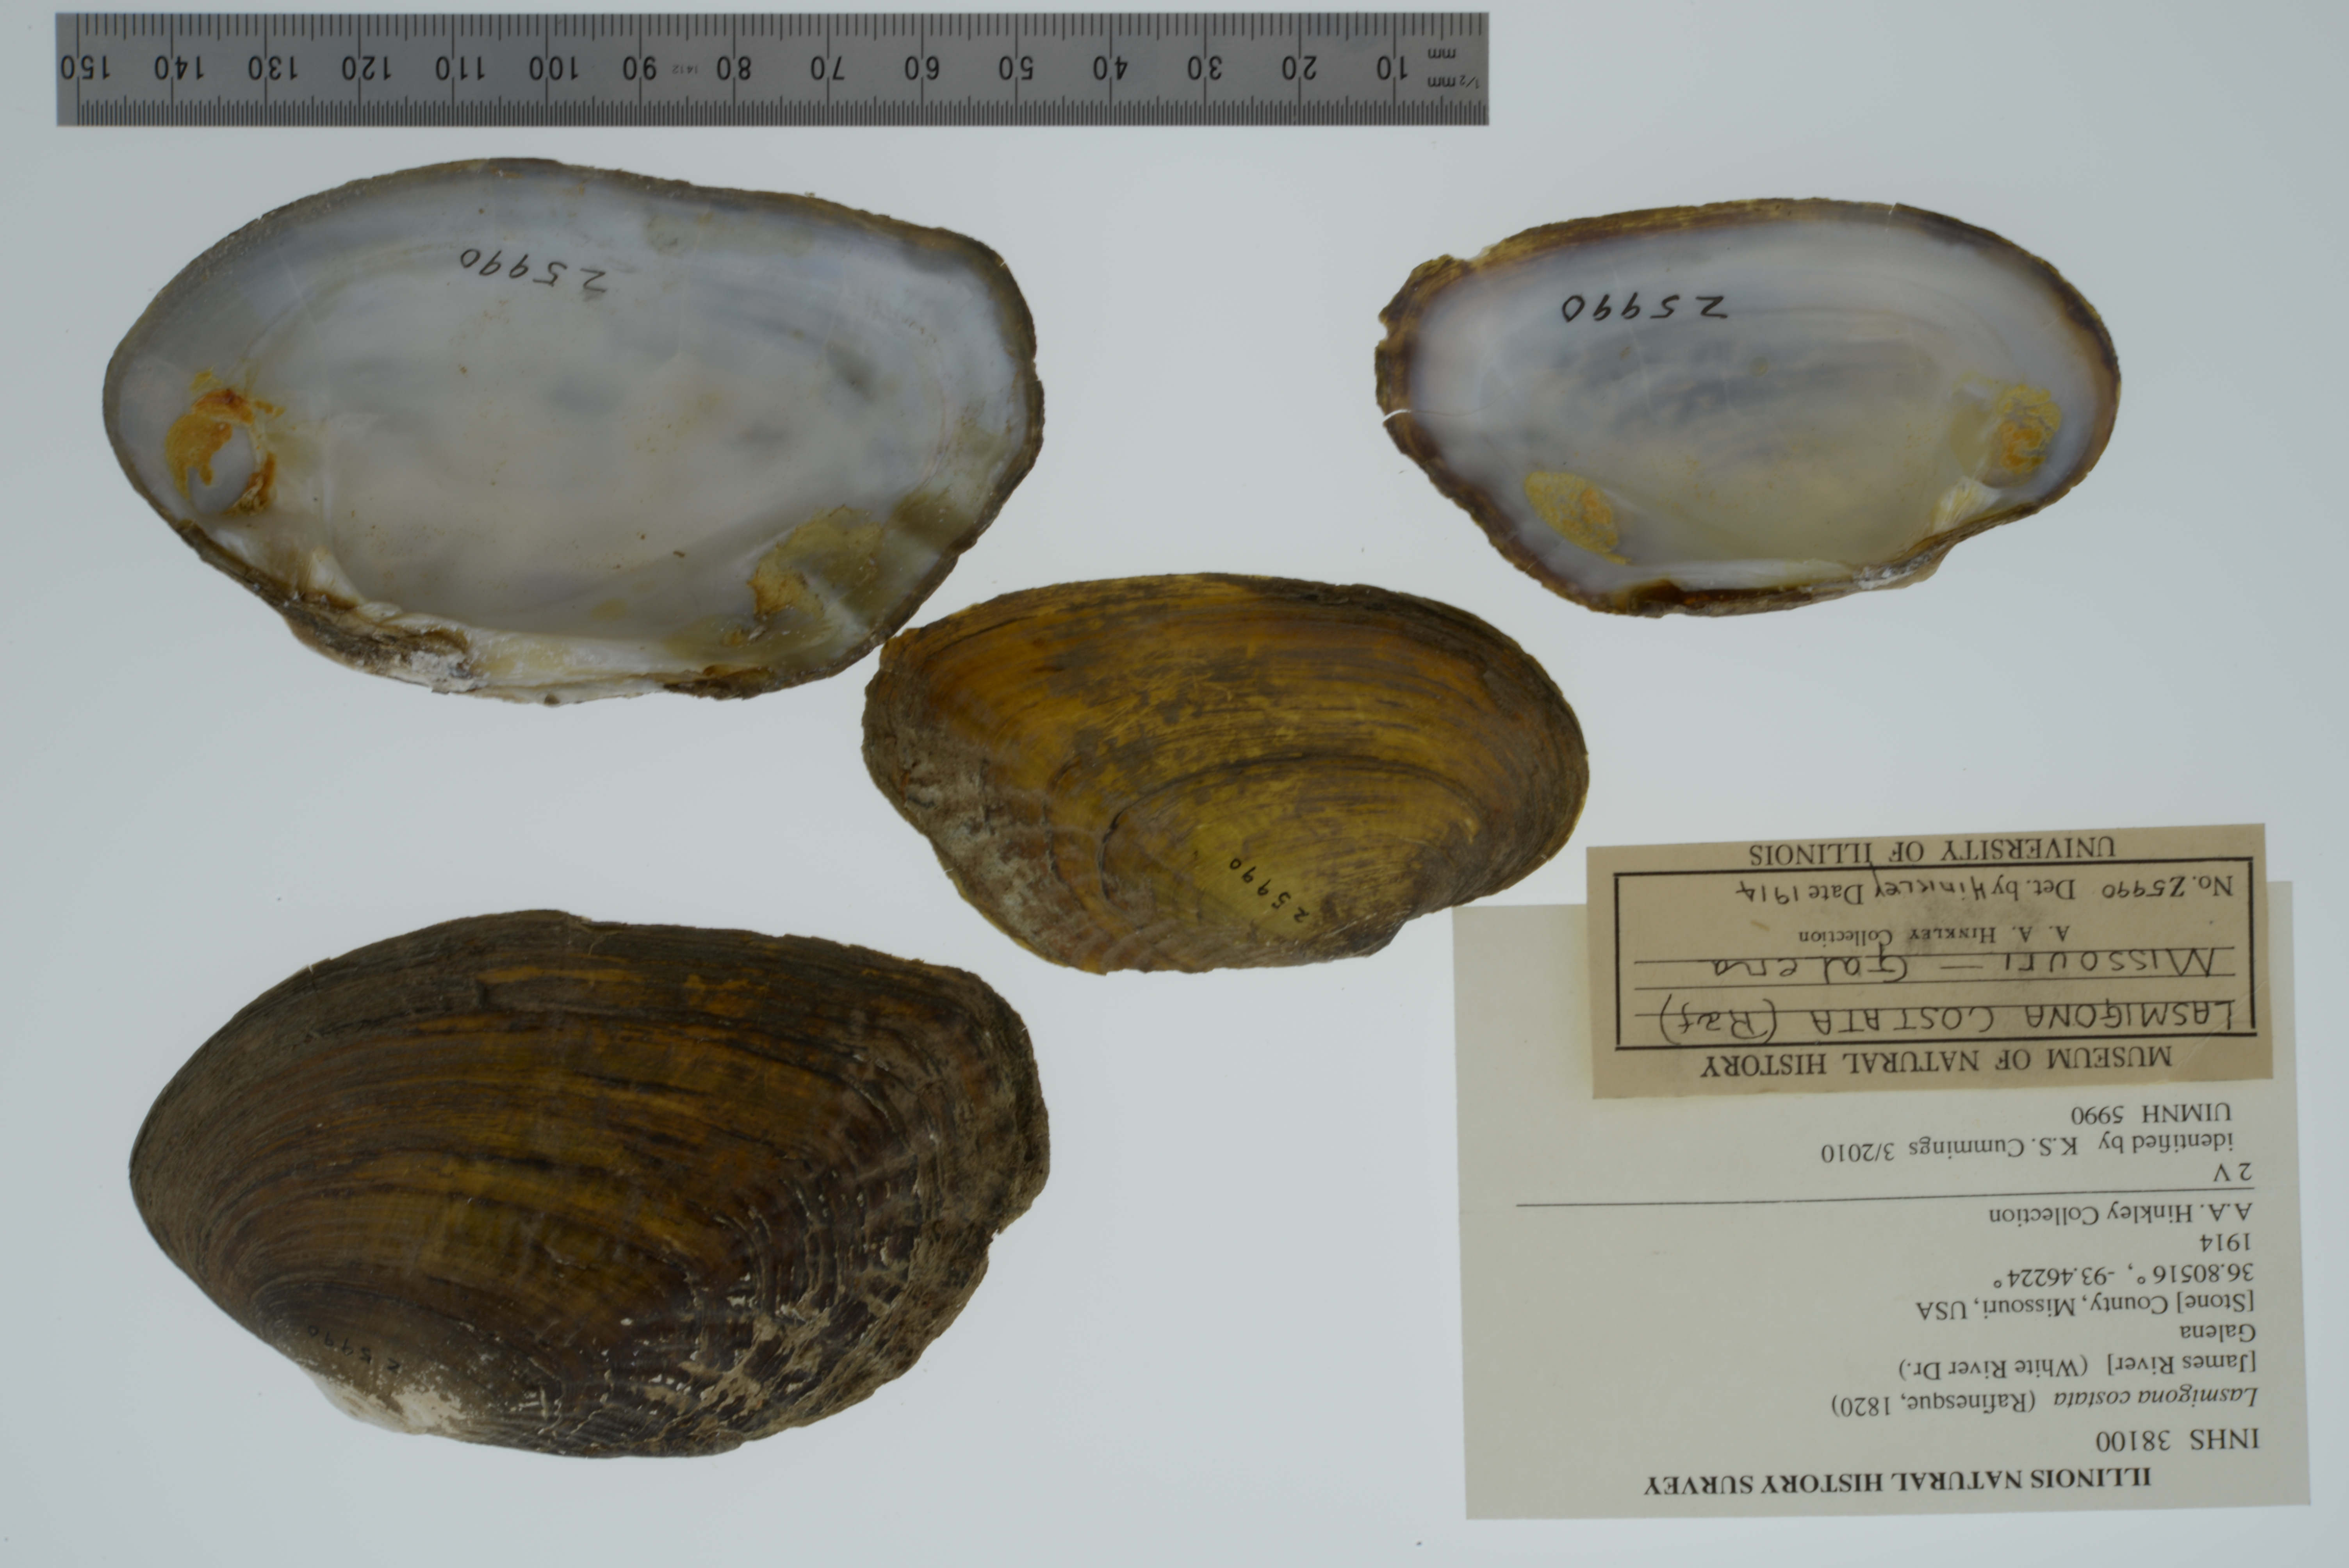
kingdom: Animalia
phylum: Mollusca
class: Bivalvia
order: Unionida
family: Unionidae
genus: Lasmigona
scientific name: Lasmigona costata
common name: Flutedshell
